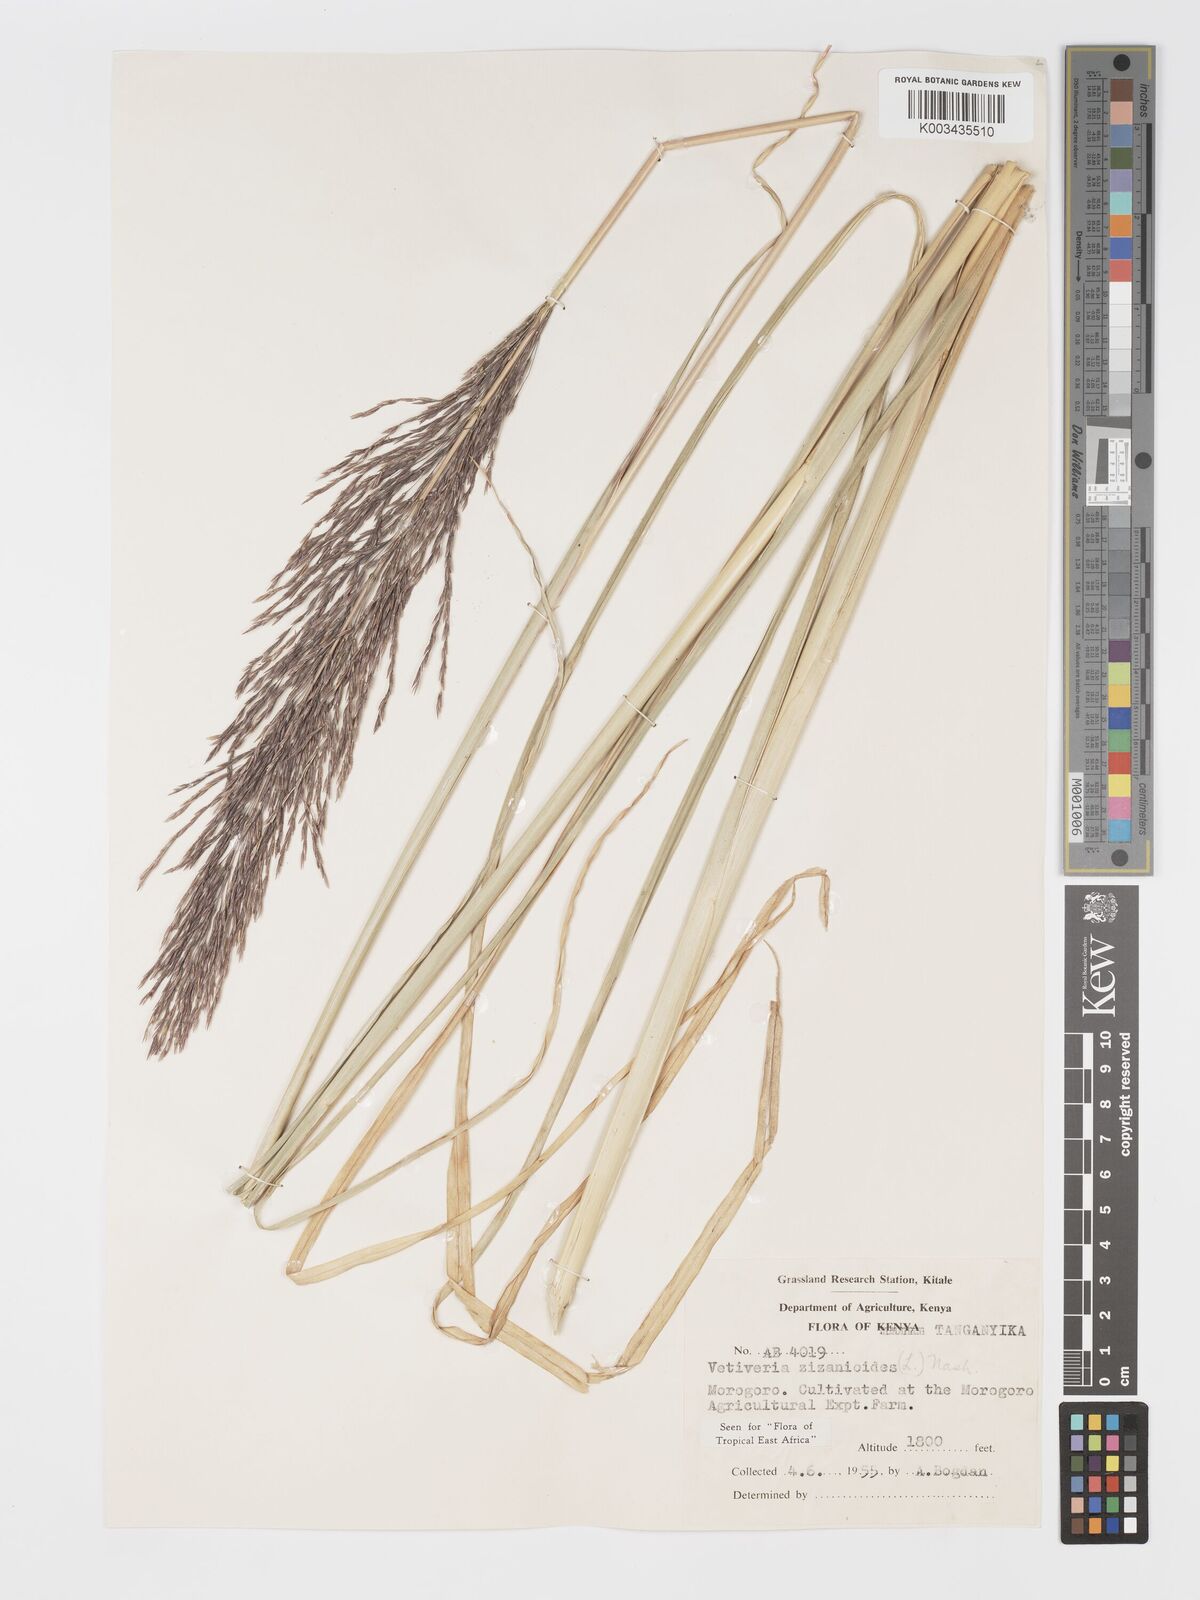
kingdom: Plantae
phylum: Tracheophyta
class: Liliopsida
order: Poales
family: Poaceae
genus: Chrysopogon
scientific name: Chrysopogon zizanioides
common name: False beardgrass
